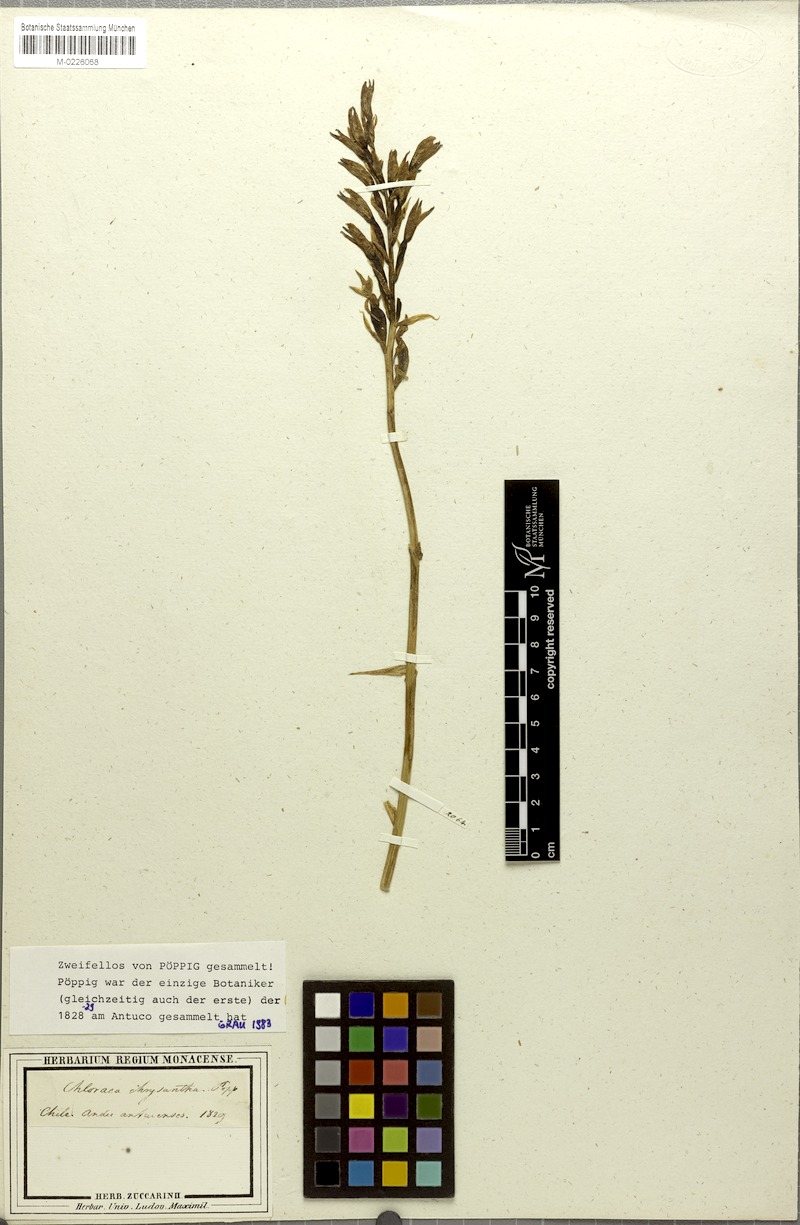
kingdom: Plantae
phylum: Tracheophyta
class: Liliopsida
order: Asparagales
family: Orchidaceae
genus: Chloraea
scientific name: Chloraea chrysantha
